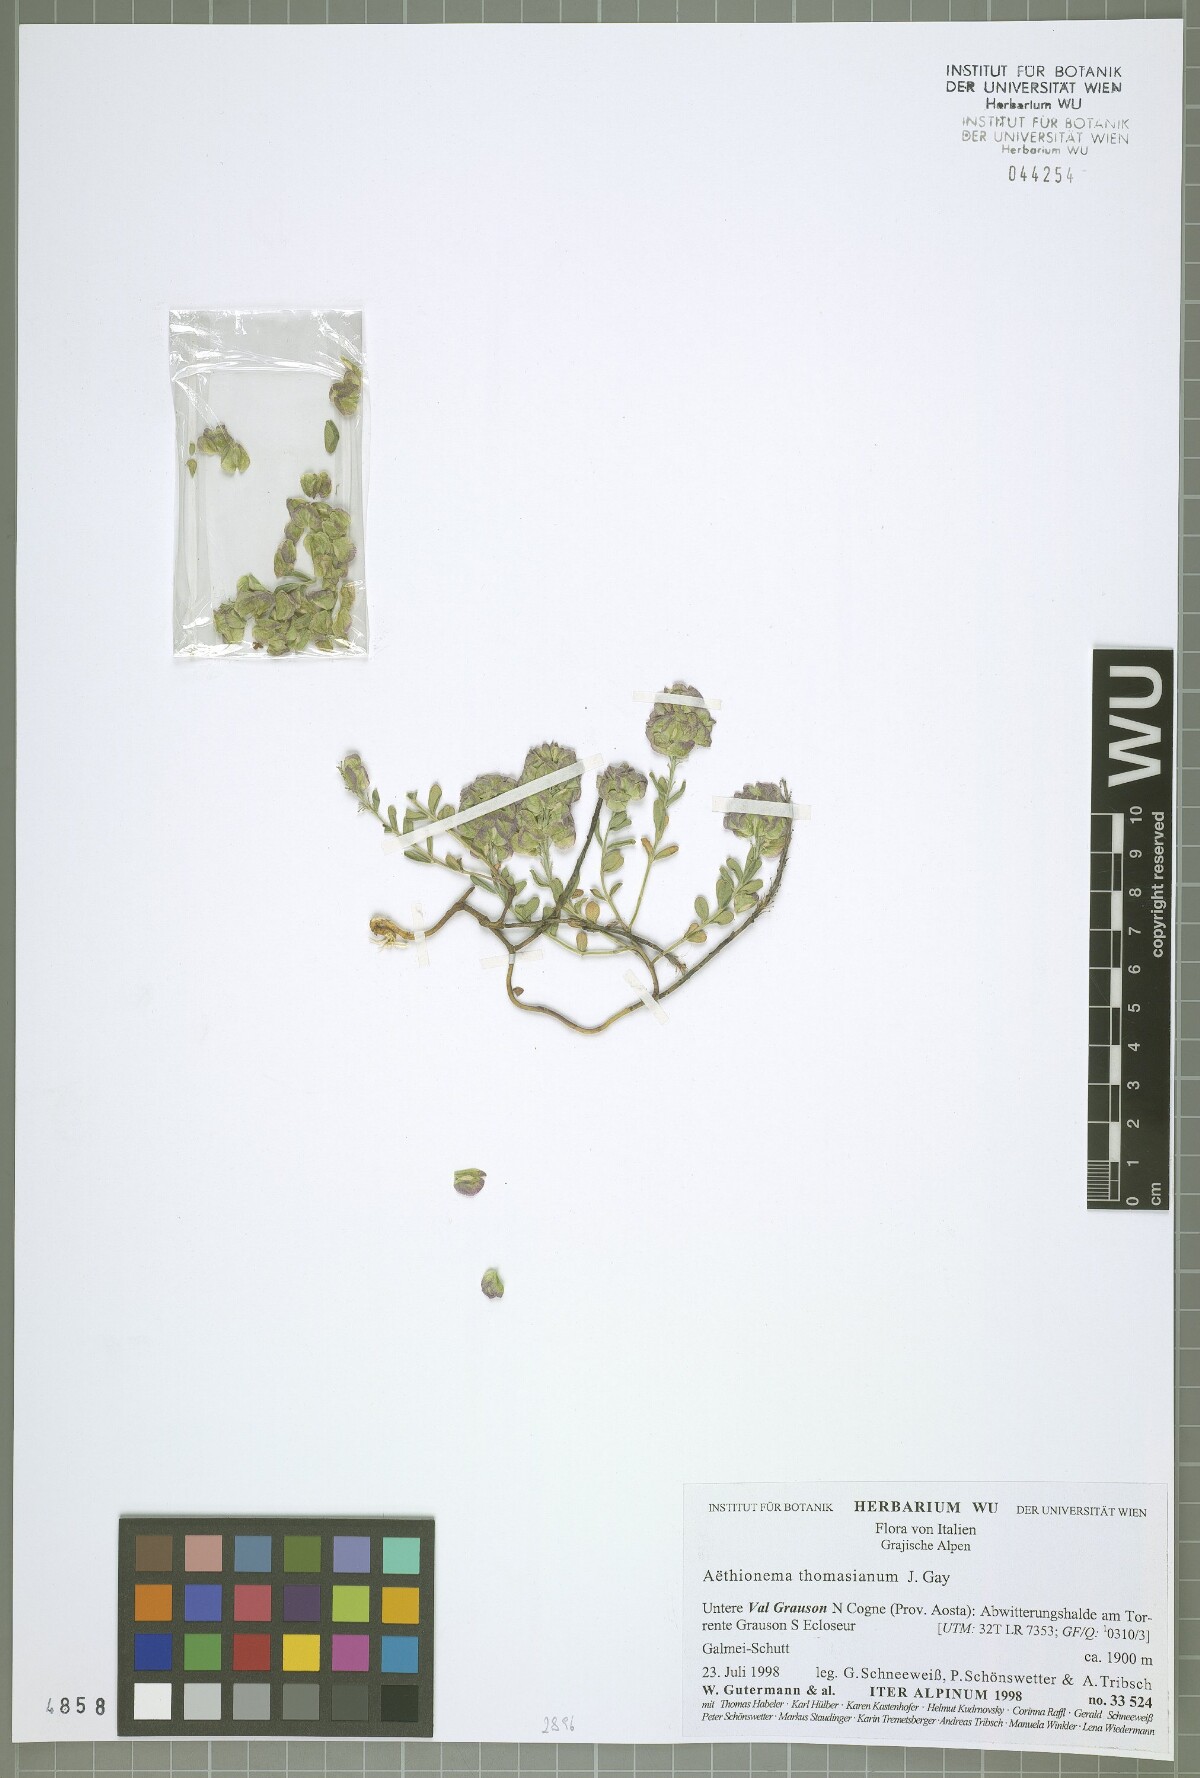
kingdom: Plantae
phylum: Tracheophyta
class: Magnoliopsida
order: Brassicales
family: Brassicaceae
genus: Aethionema
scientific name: Aethionema thomasianum
